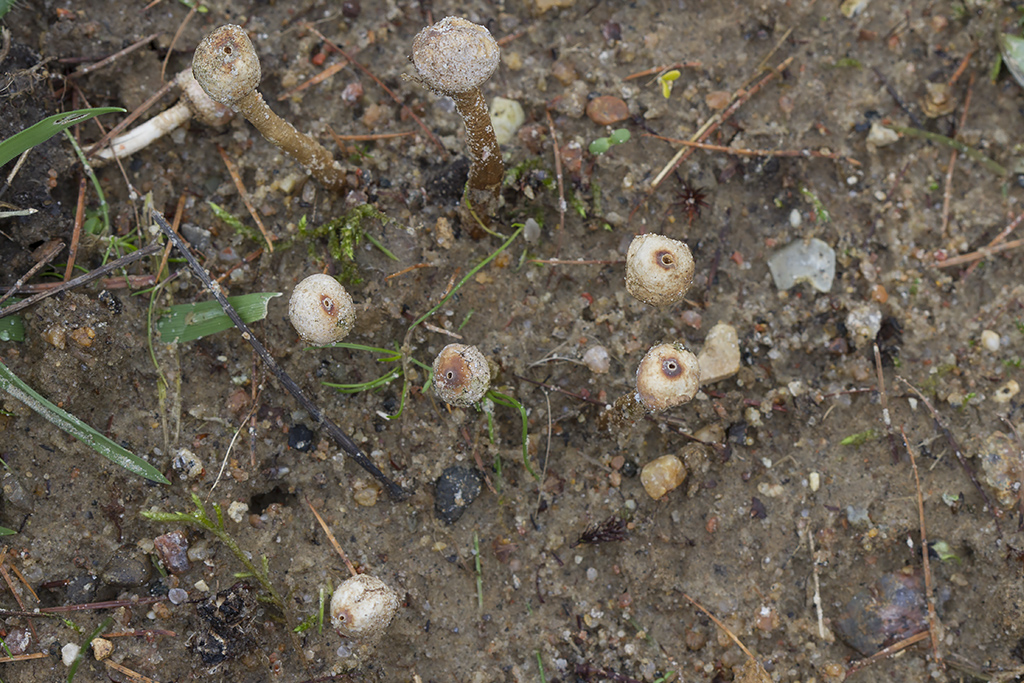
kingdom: Fungi
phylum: Basidiomycota
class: Agaricomycetes
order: Agaricales
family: Agaricaceae
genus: Tulostoma
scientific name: Tulostoma brumale
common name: vinter-stilkbovist
